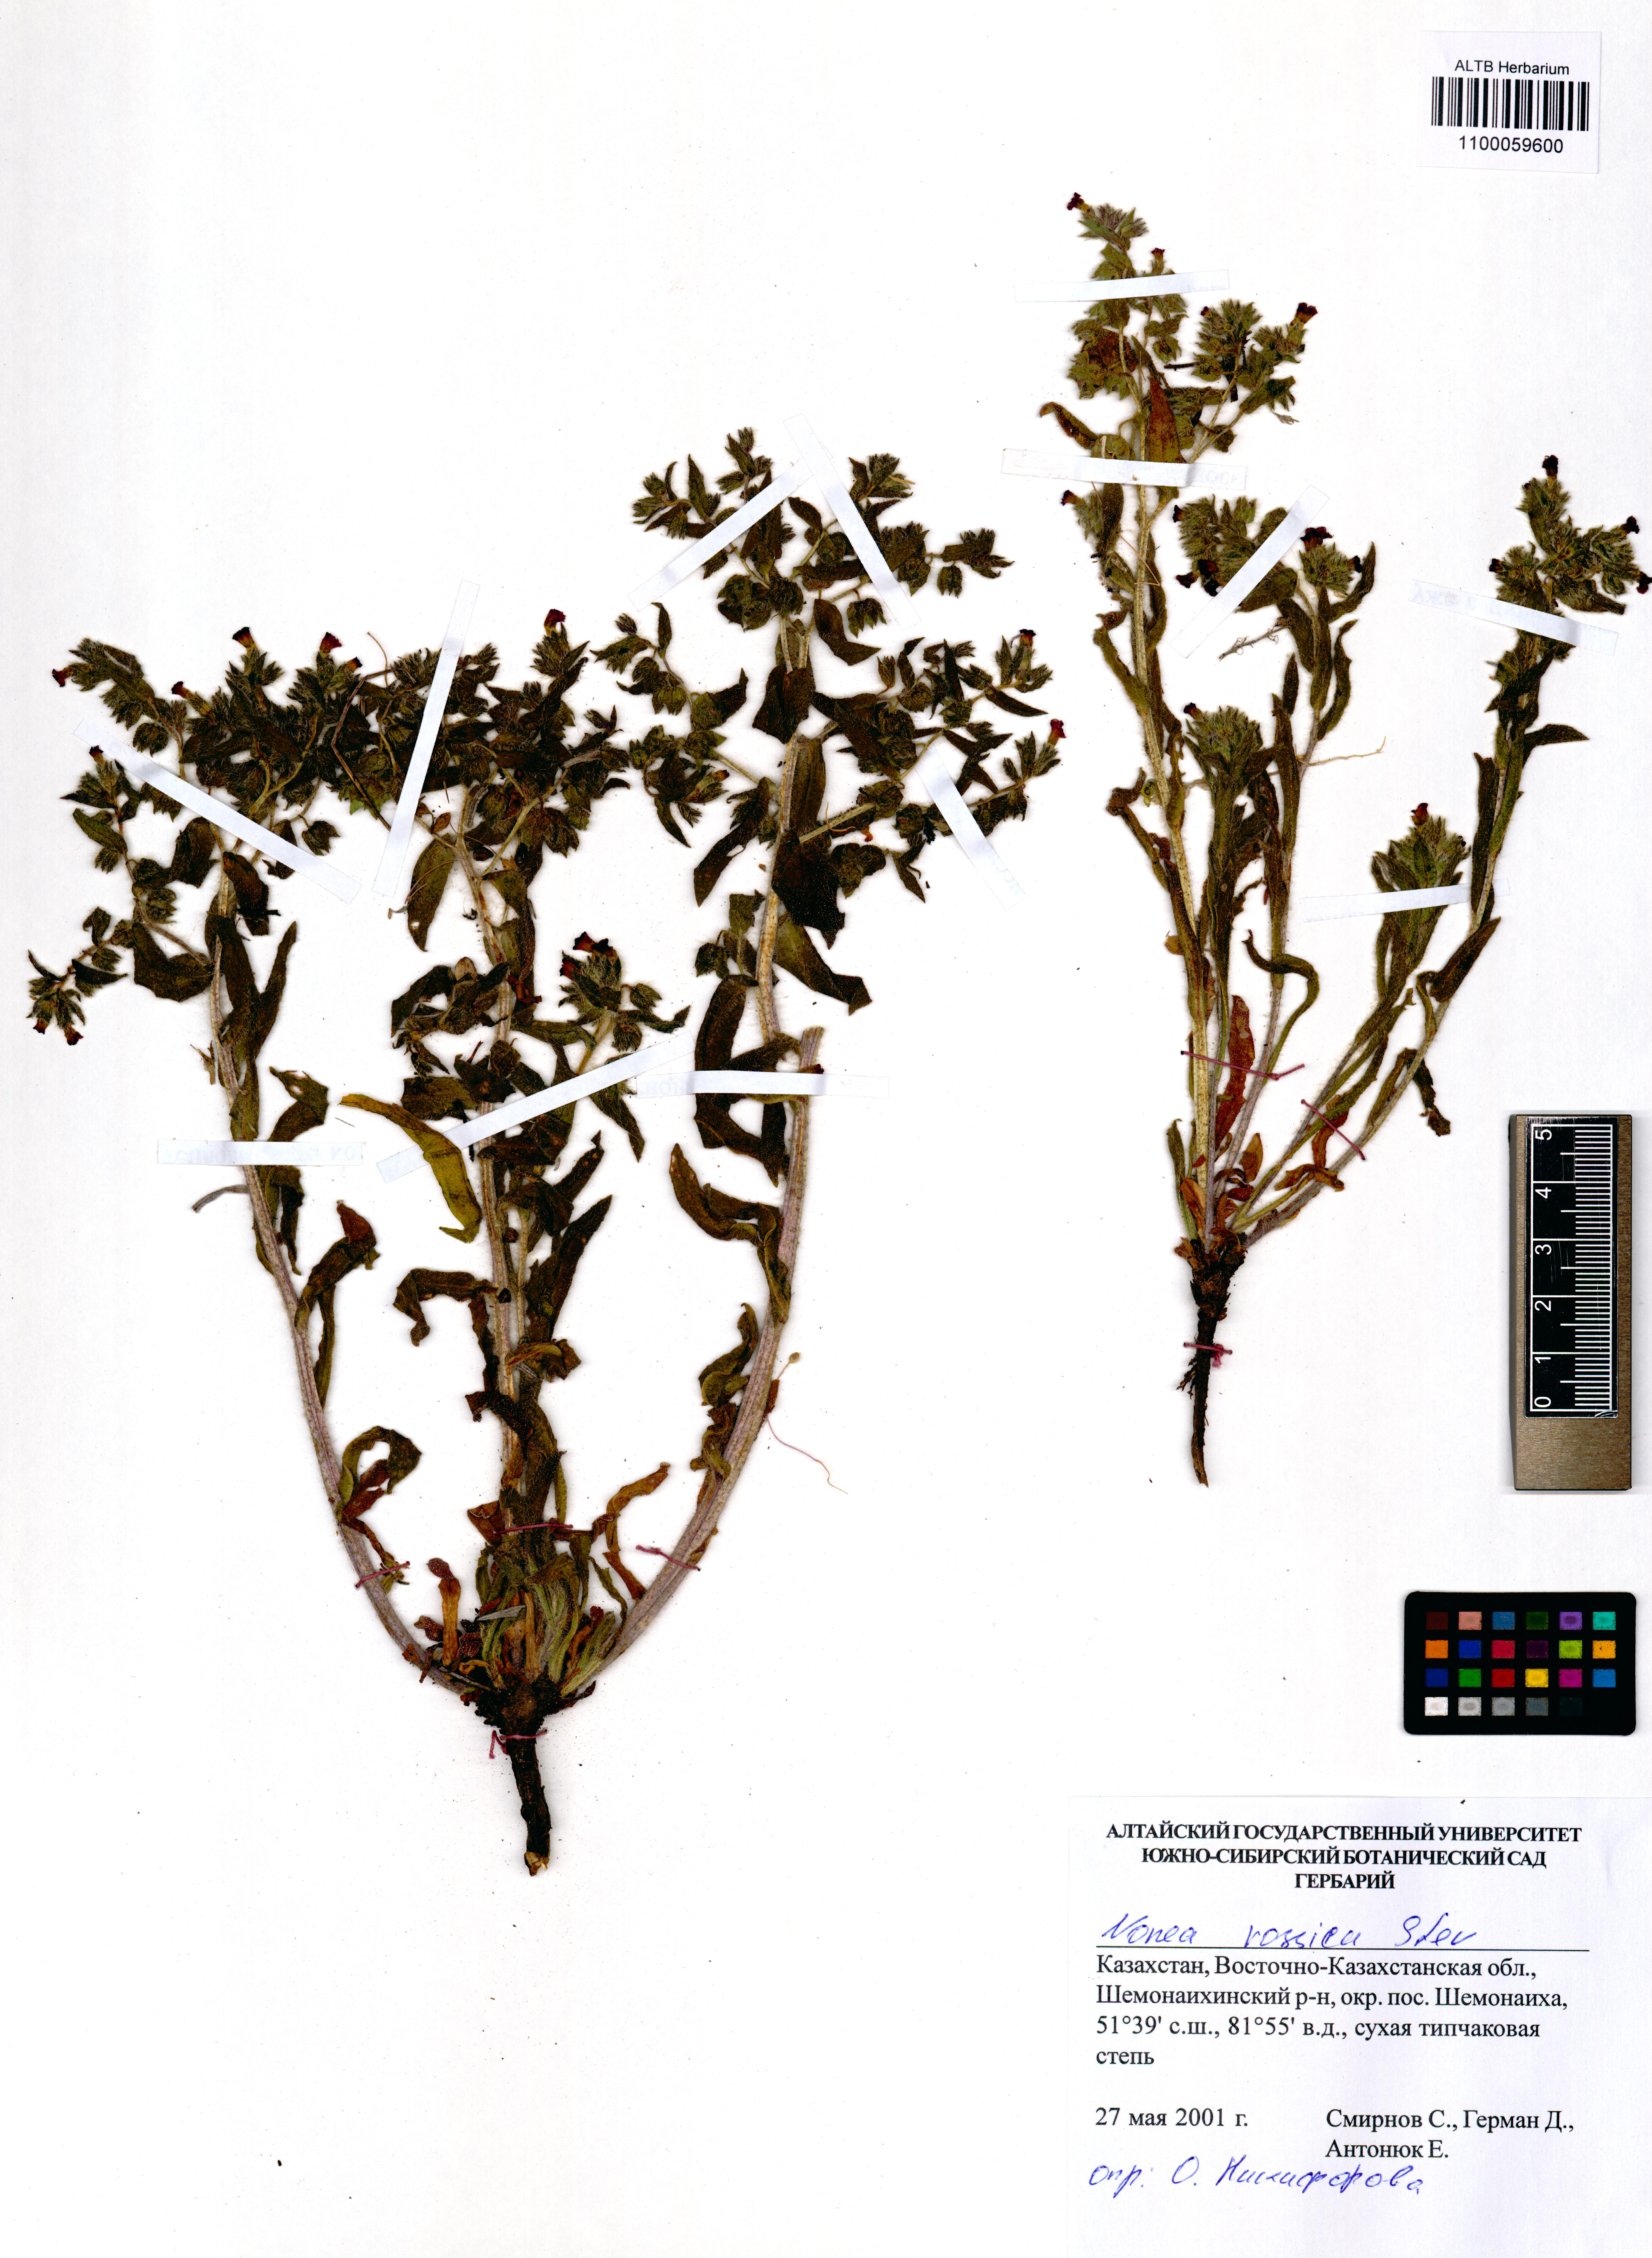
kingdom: Plantae
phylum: Tracheophyta
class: Magnoliopsida
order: Boraginales
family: Boraginaceae
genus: Nonea
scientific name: Nonea pulla
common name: Brown nonea
